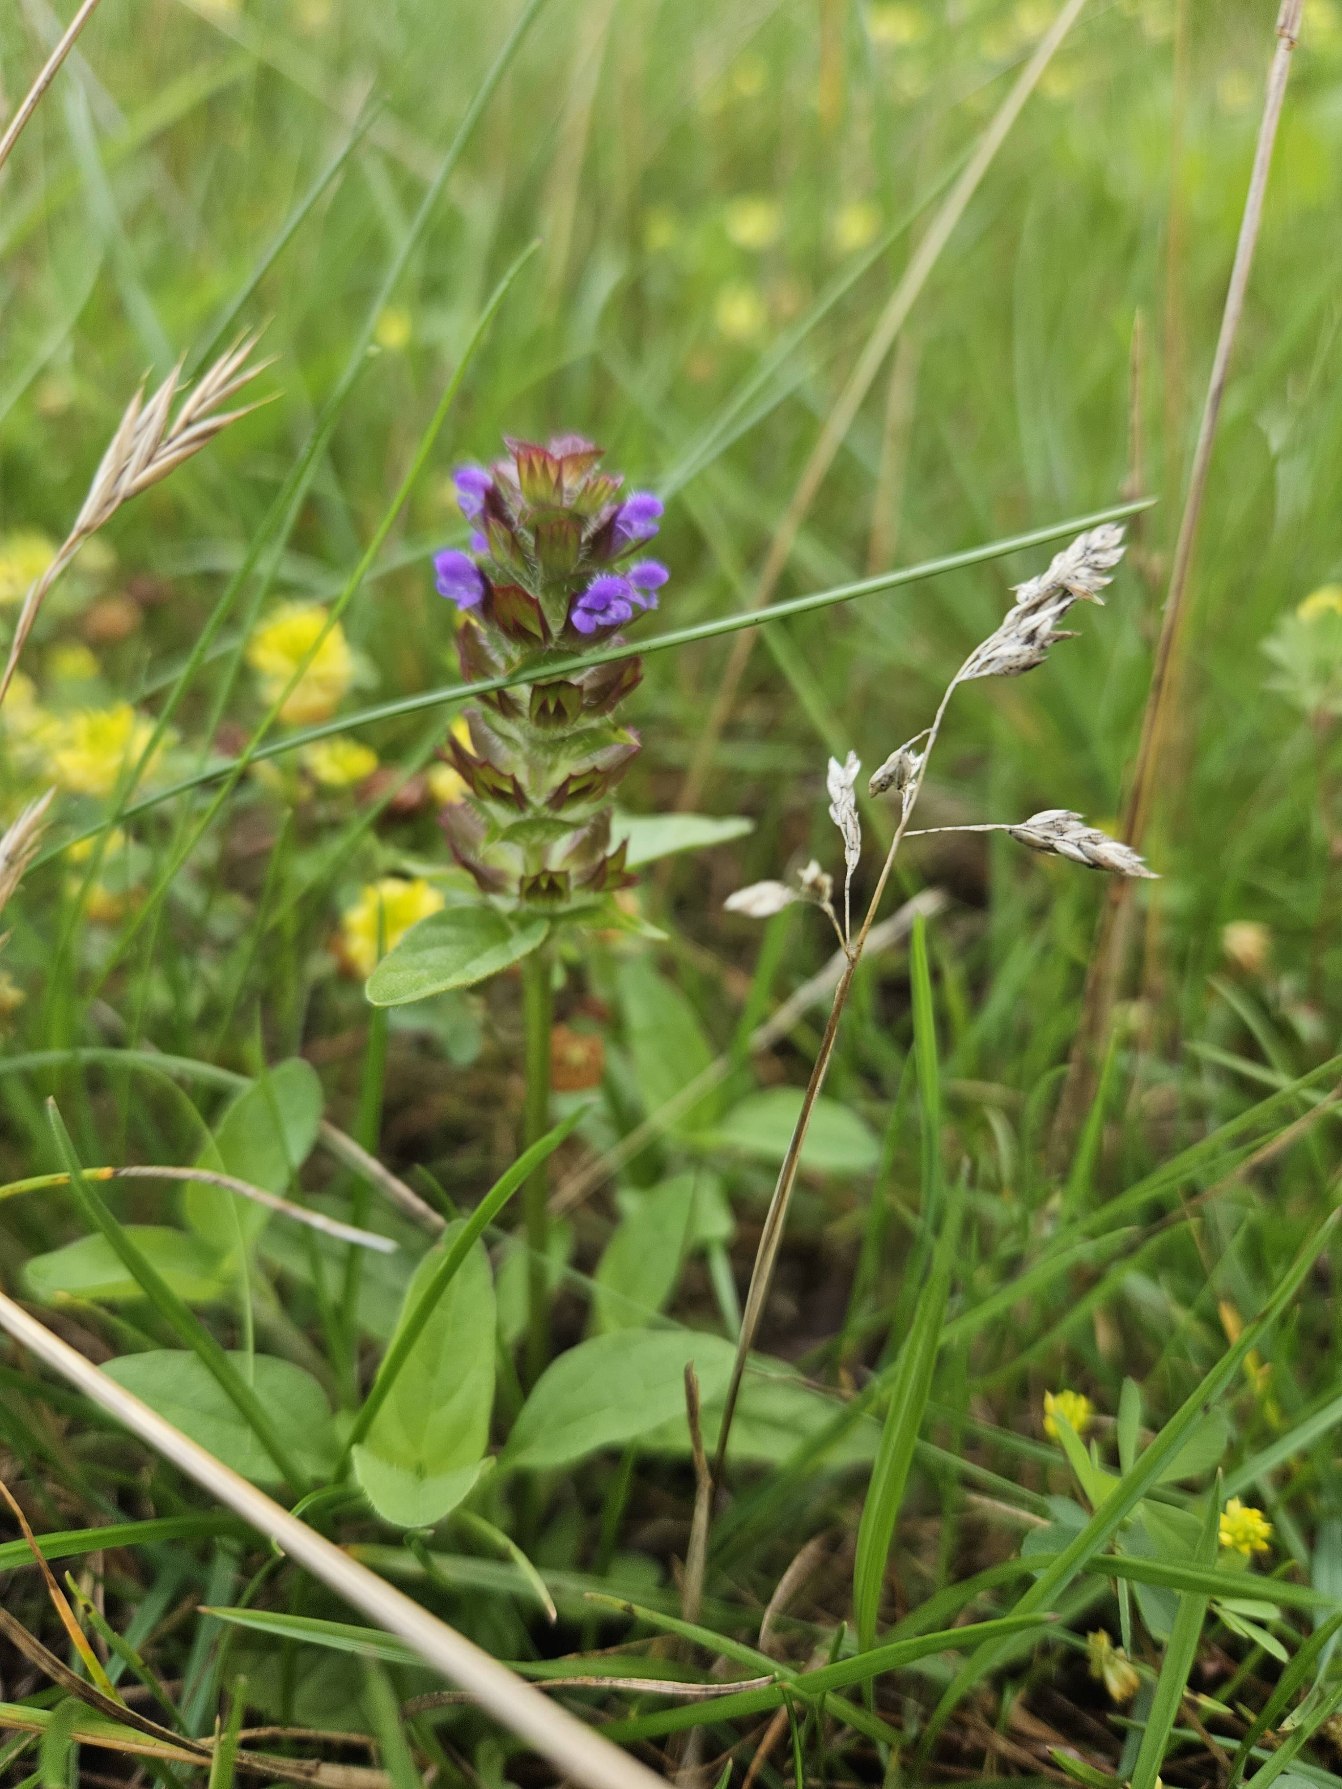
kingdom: Plantae
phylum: Tracheophyta
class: Magnoliopsida
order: Lamiales
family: Lamiaceae
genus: Prunella
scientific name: Prunella vulgaris
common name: Almindelig brunelle
